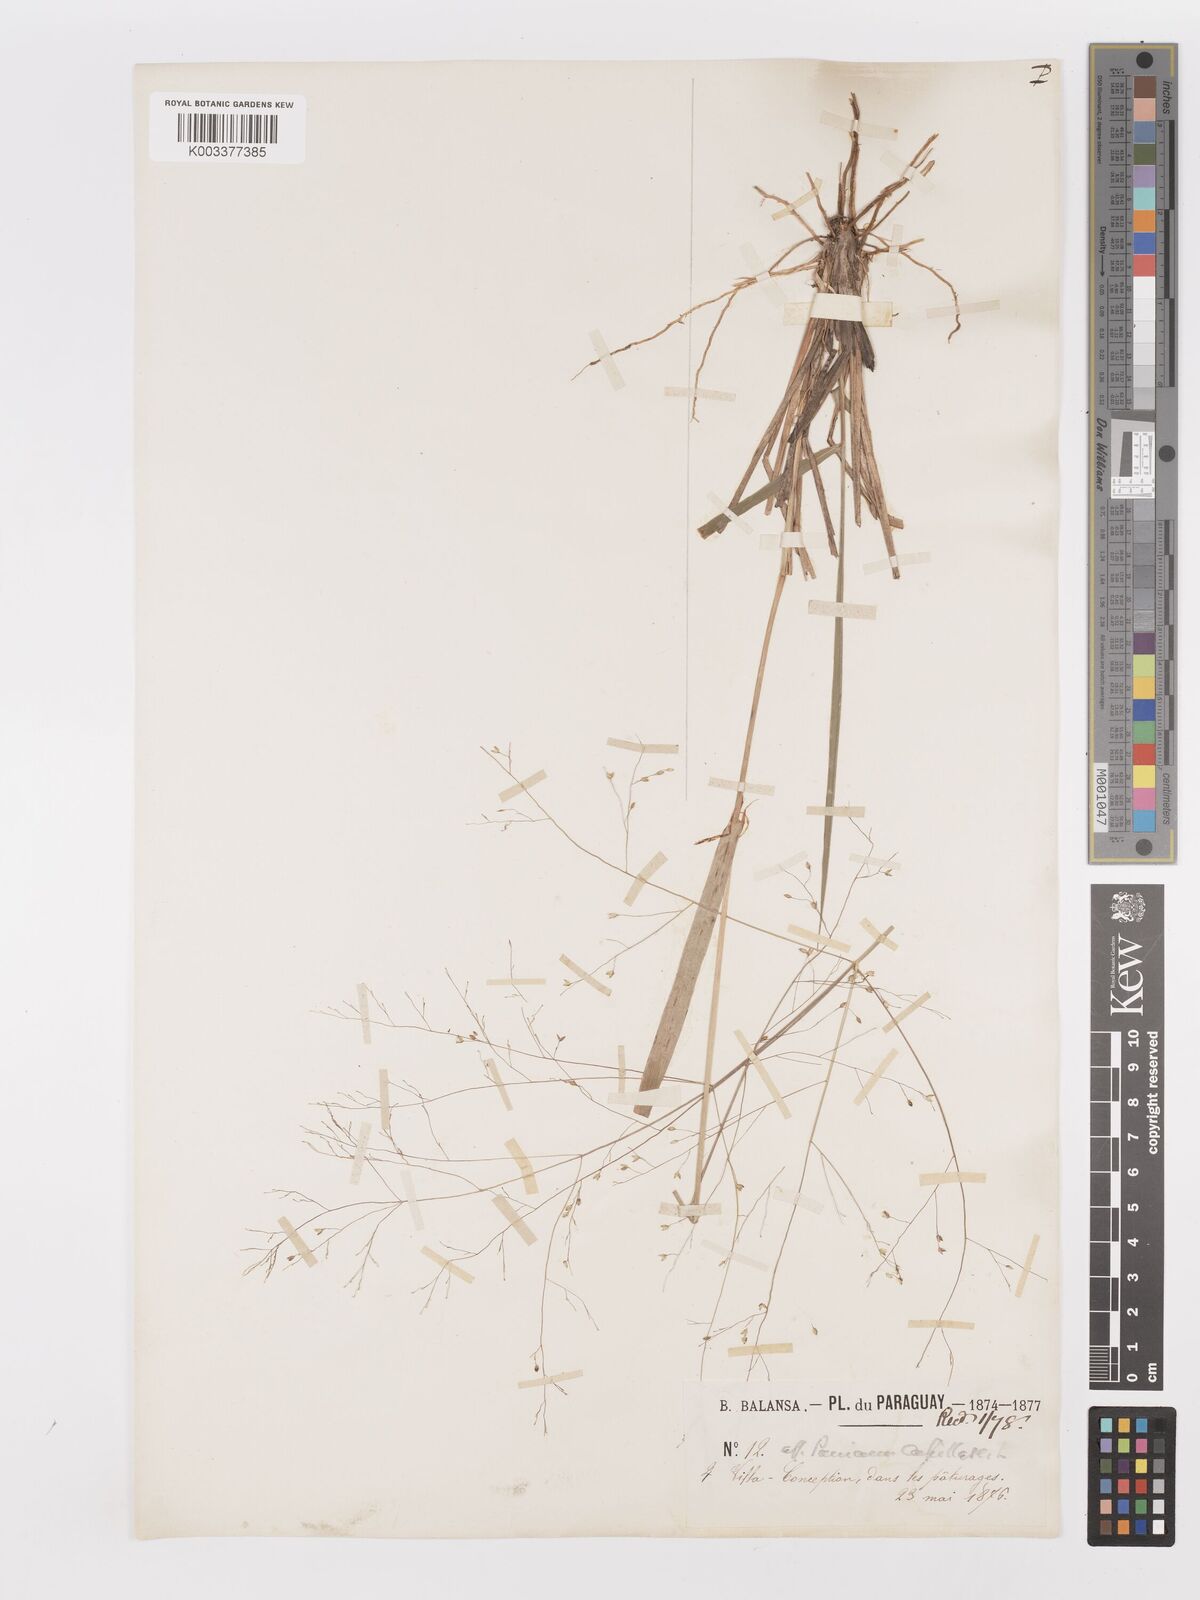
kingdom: Plantae
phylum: Tracheophyta
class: Liliopsida
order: Poales
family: Poaceae
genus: Panicum
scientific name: Panicum
